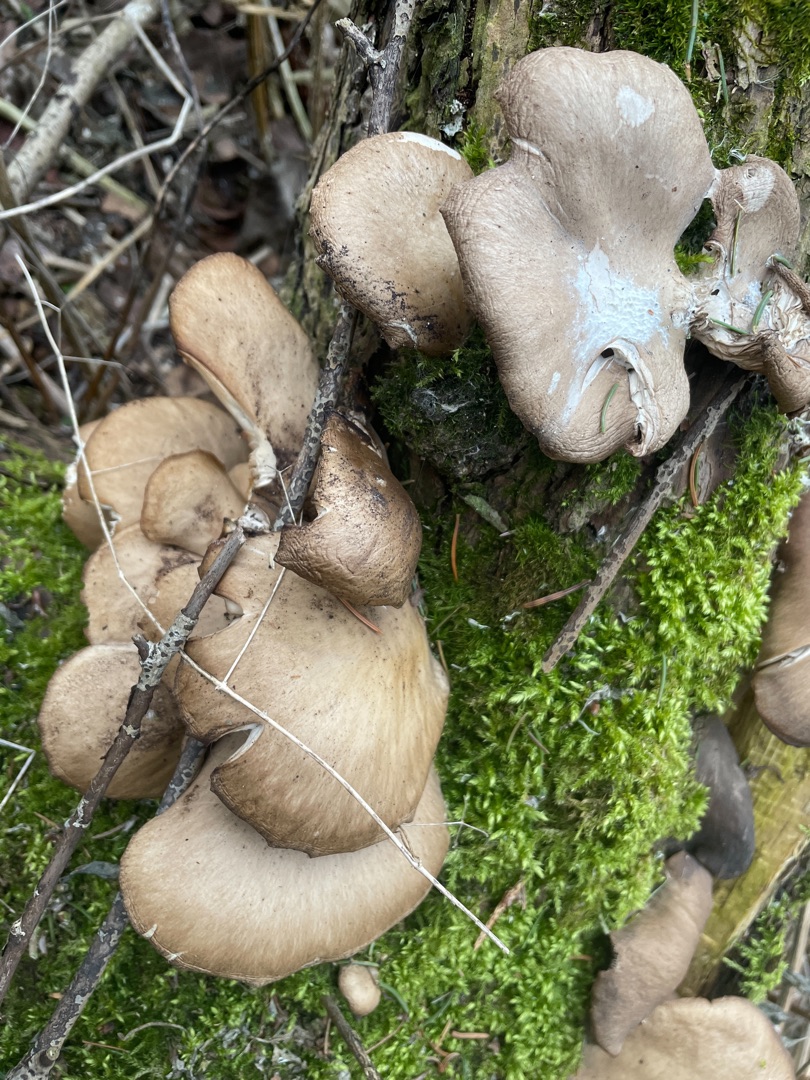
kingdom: Fungi
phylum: Basidiomycota
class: Agaricomycetes
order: Agaricales
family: Pleurotaceae
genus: Pleurotus
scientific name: Pleurotus
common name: Østershat
